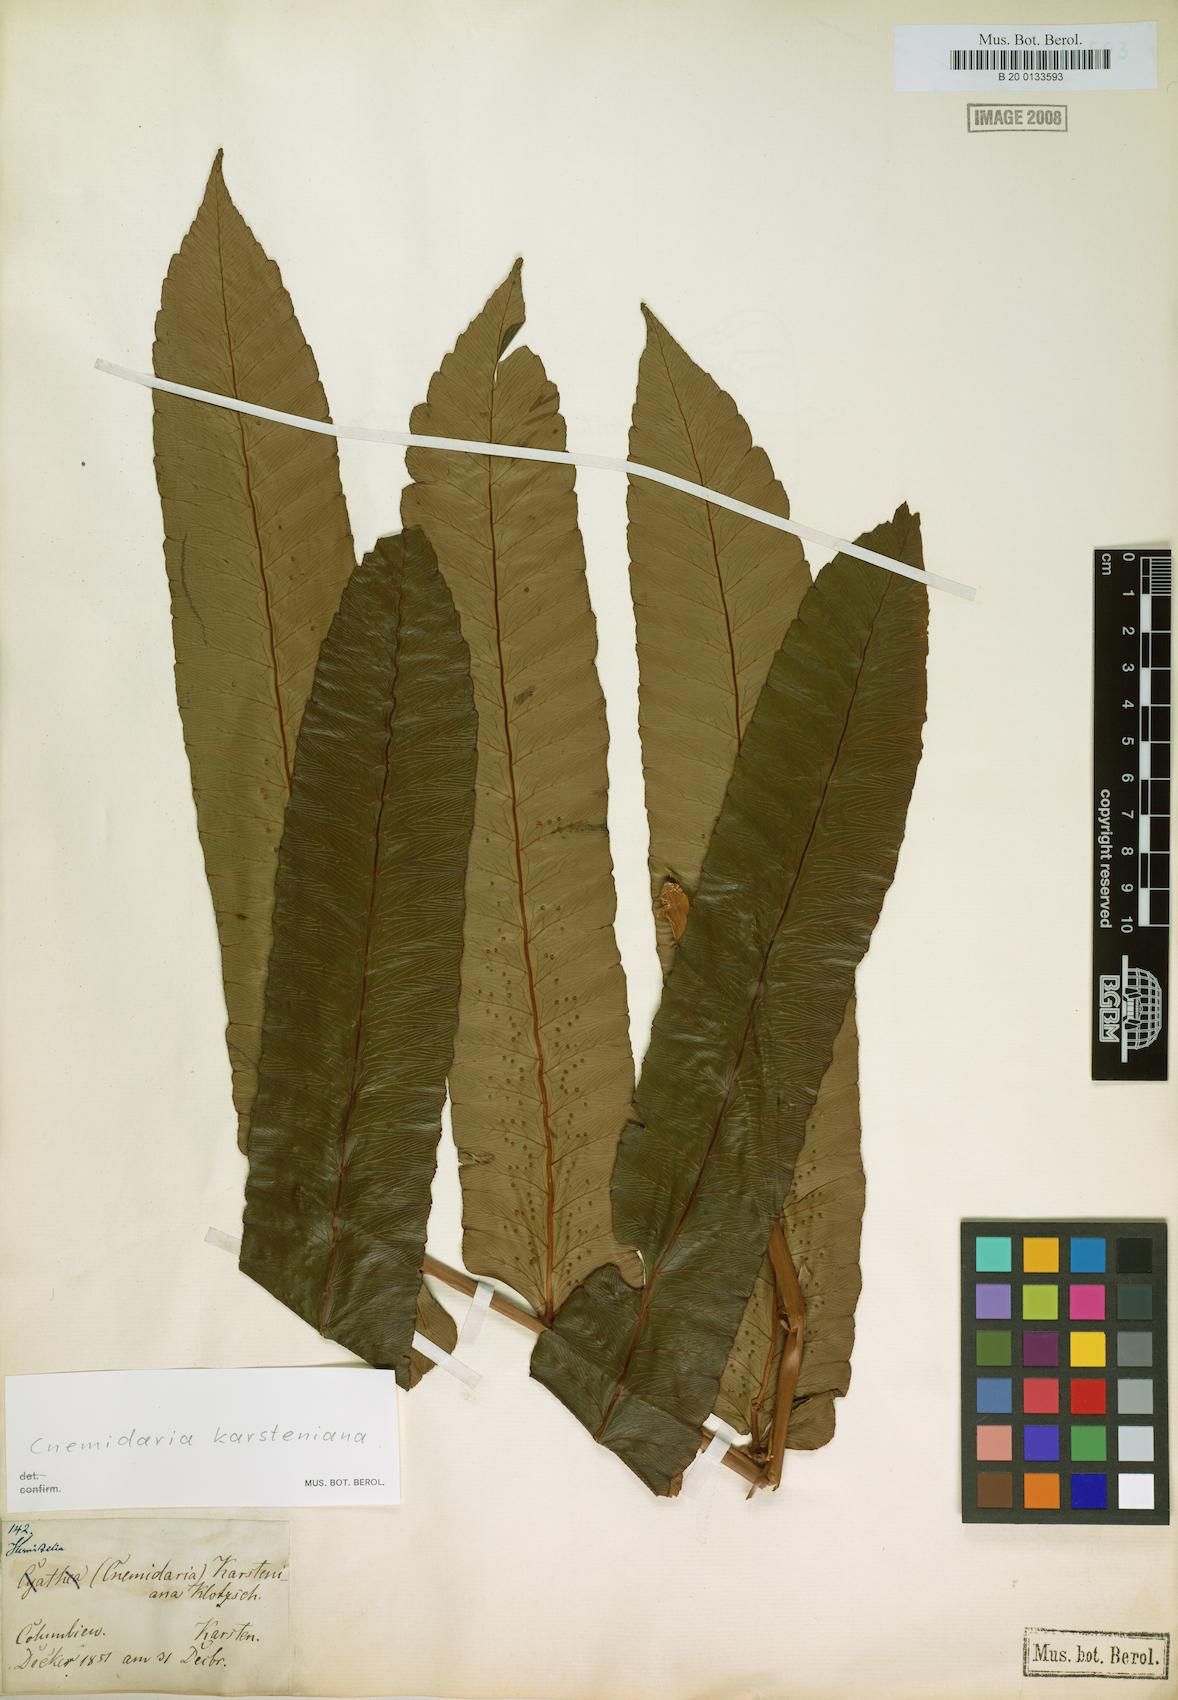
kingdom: Plantae
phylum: Tracheophyta
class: Polypodiopsida
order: Cyatheales
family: Cyatheaceae
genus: Cyathea
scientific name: Cyathea karsteniana
